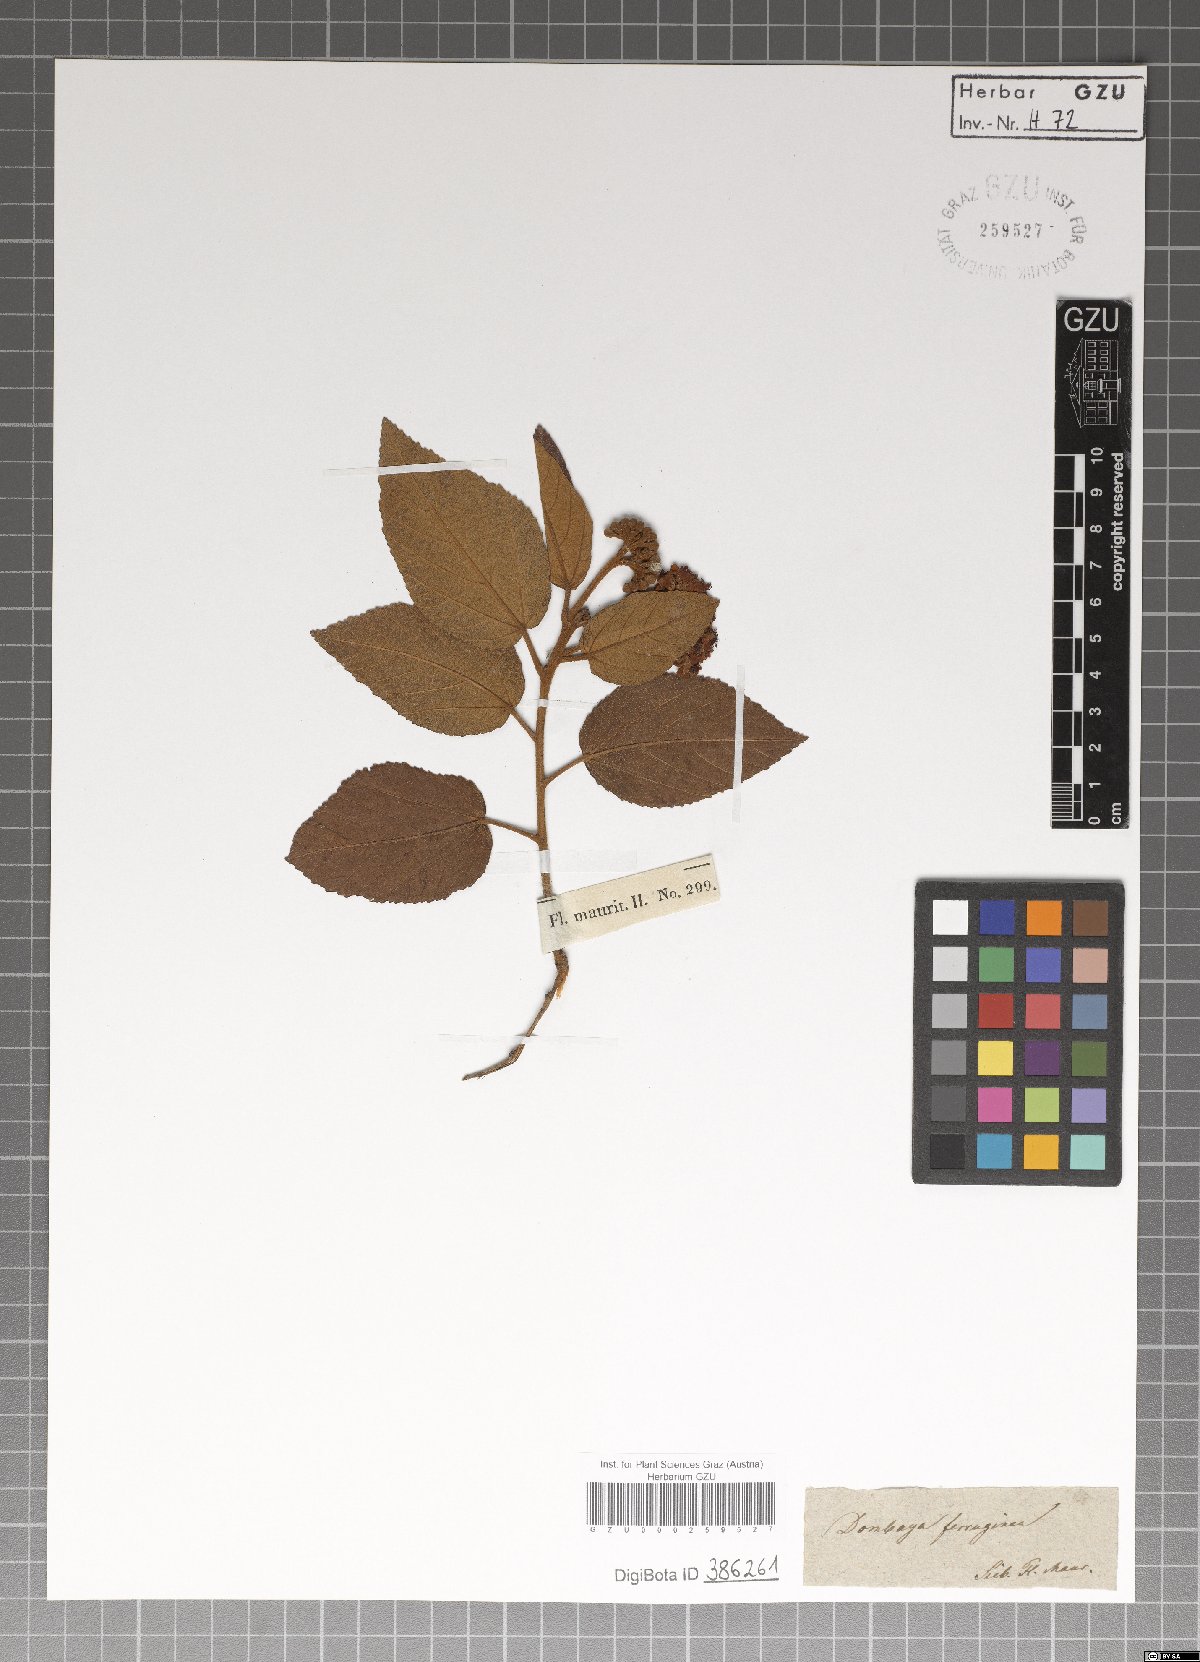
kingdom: Plantae
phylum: Tracheophyta
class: Magnoliopsida
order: Malvales
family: Malvaceae
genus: Ruizia
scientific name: Ruizia ferruginea
